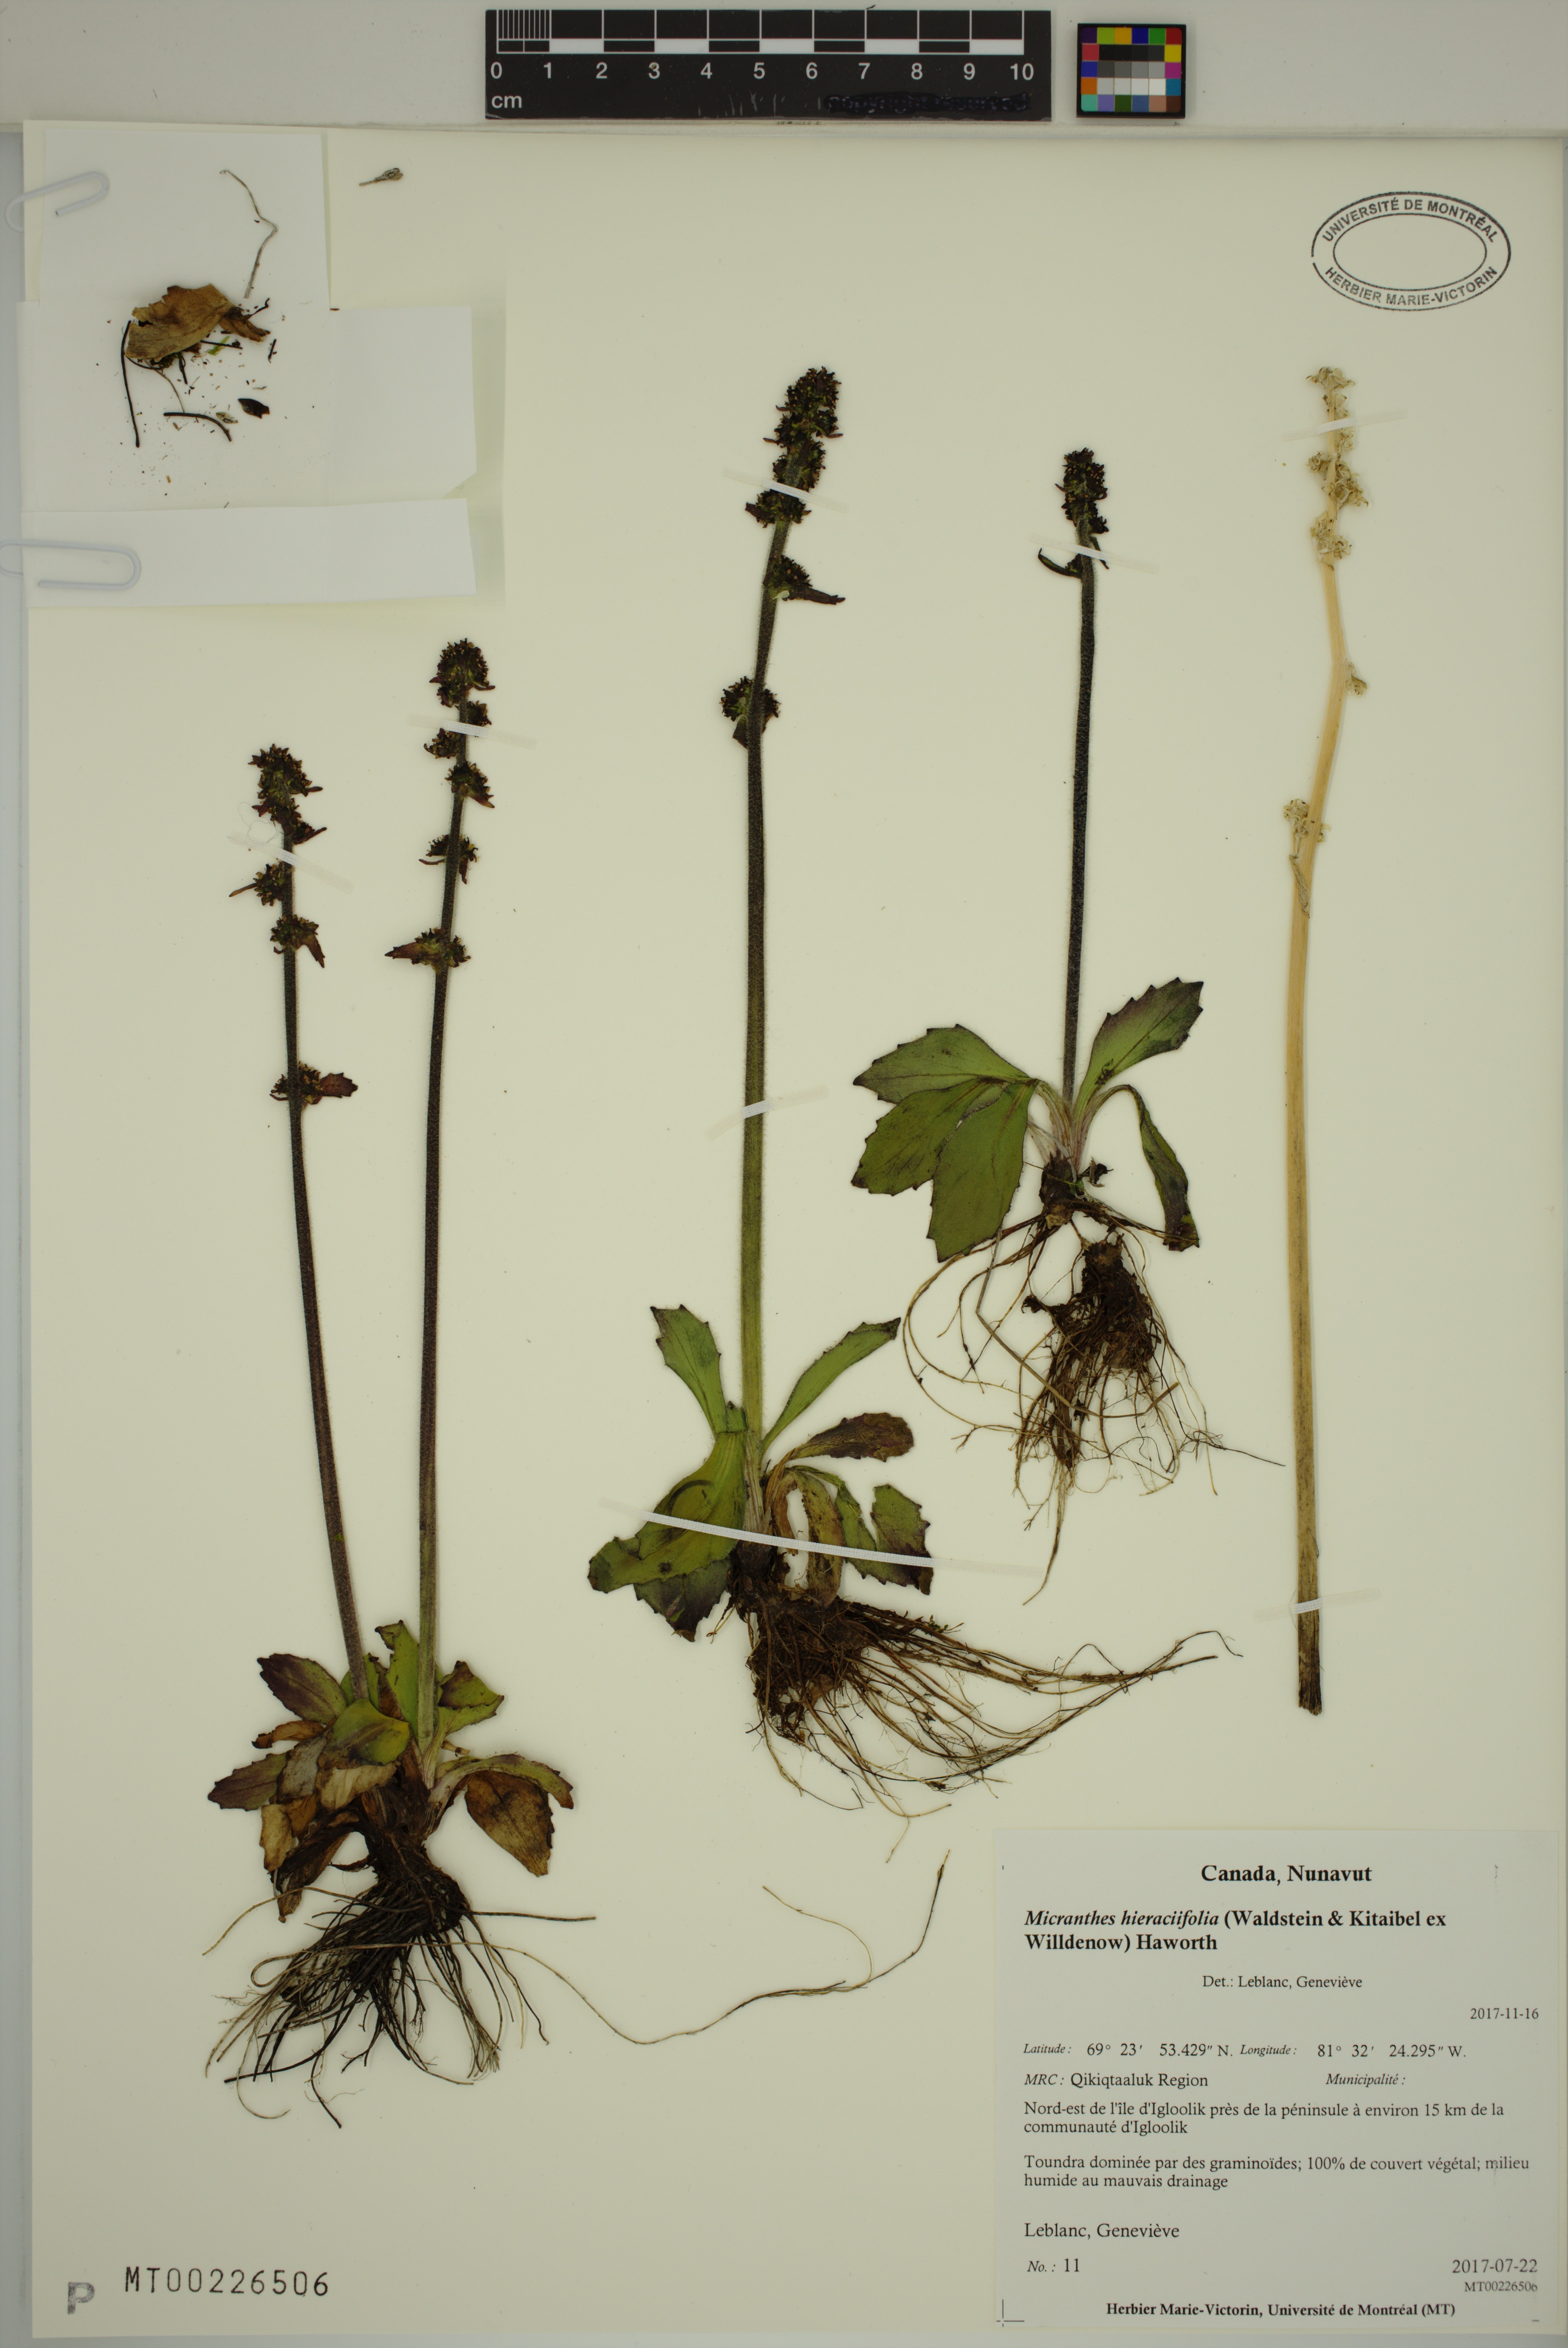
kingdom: Plantae
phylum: Tracheophyta
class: Magnoliopsida
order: Saxifragales
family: Saxifragaceae
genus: Micranthes
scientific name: Micranthes hieraciifolia
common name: Hawkweed-leaved saxifrage
